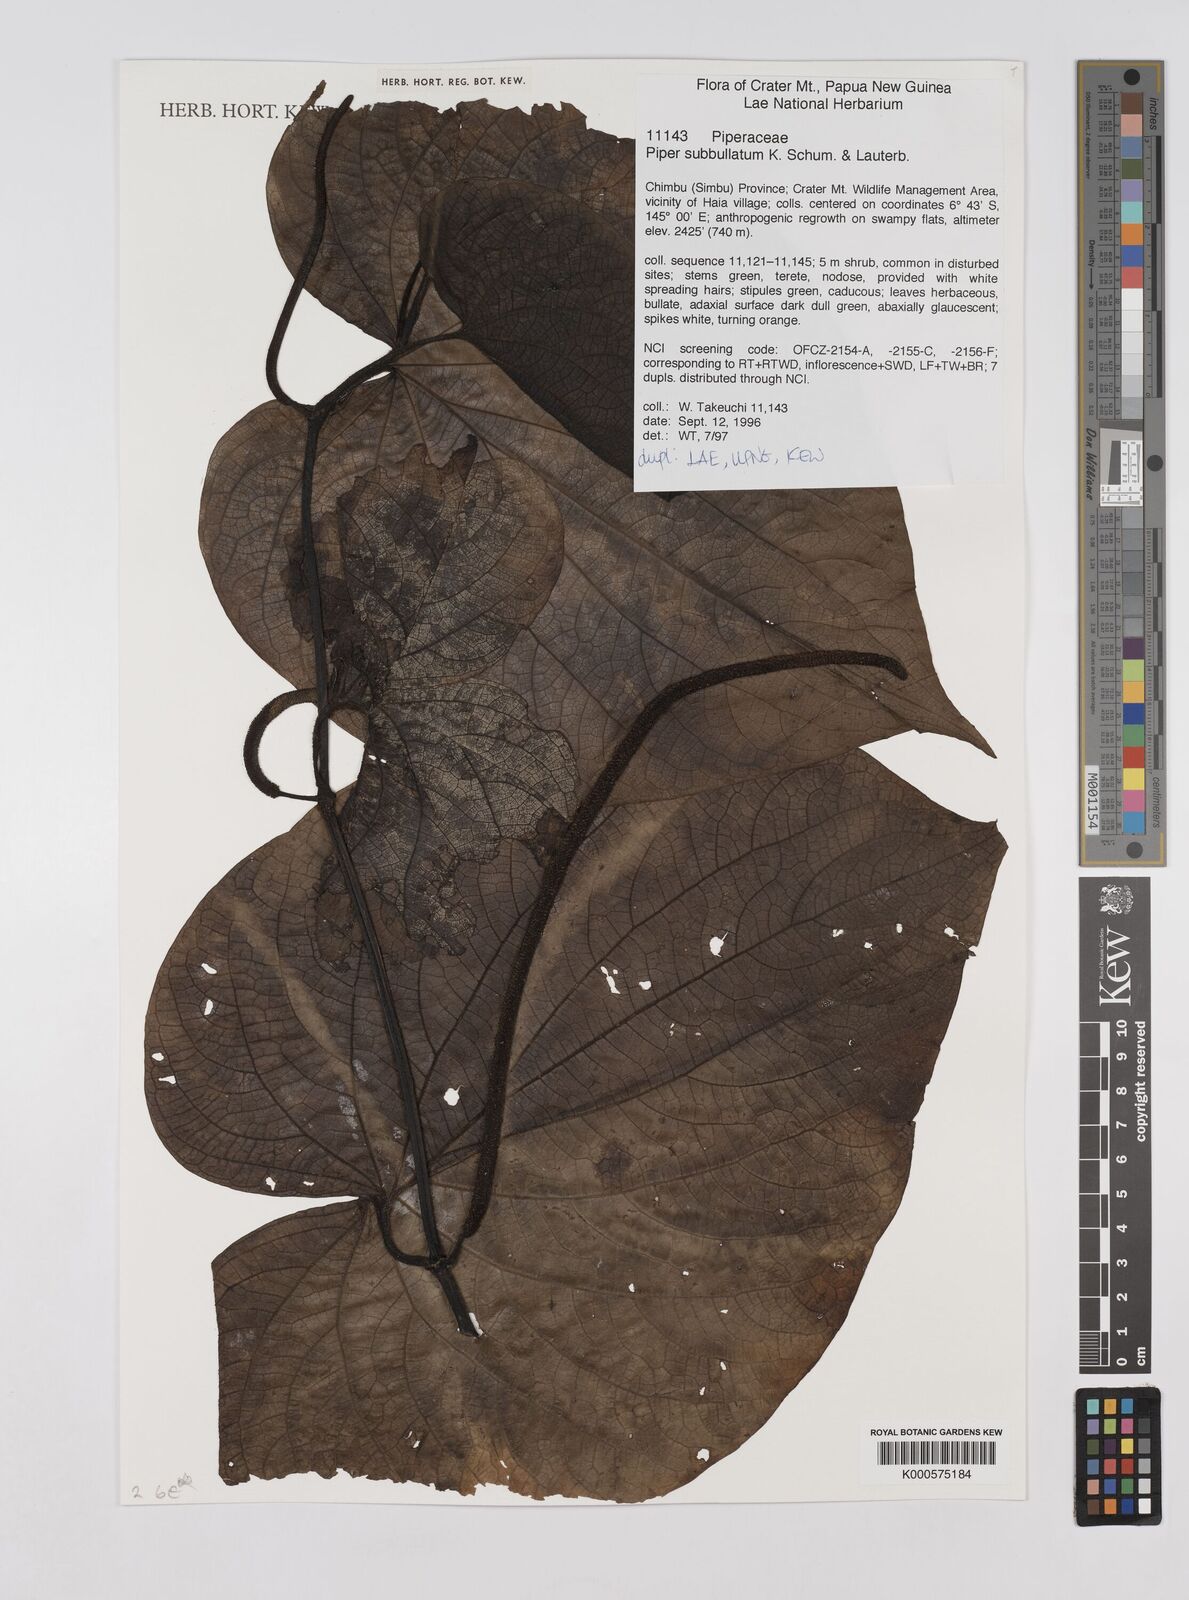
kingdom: Plantae
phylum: Tracheophyta
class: Magnoliopsida
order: Piperales
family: Piperaceae
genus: Piper
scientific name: Piper subbullatum
